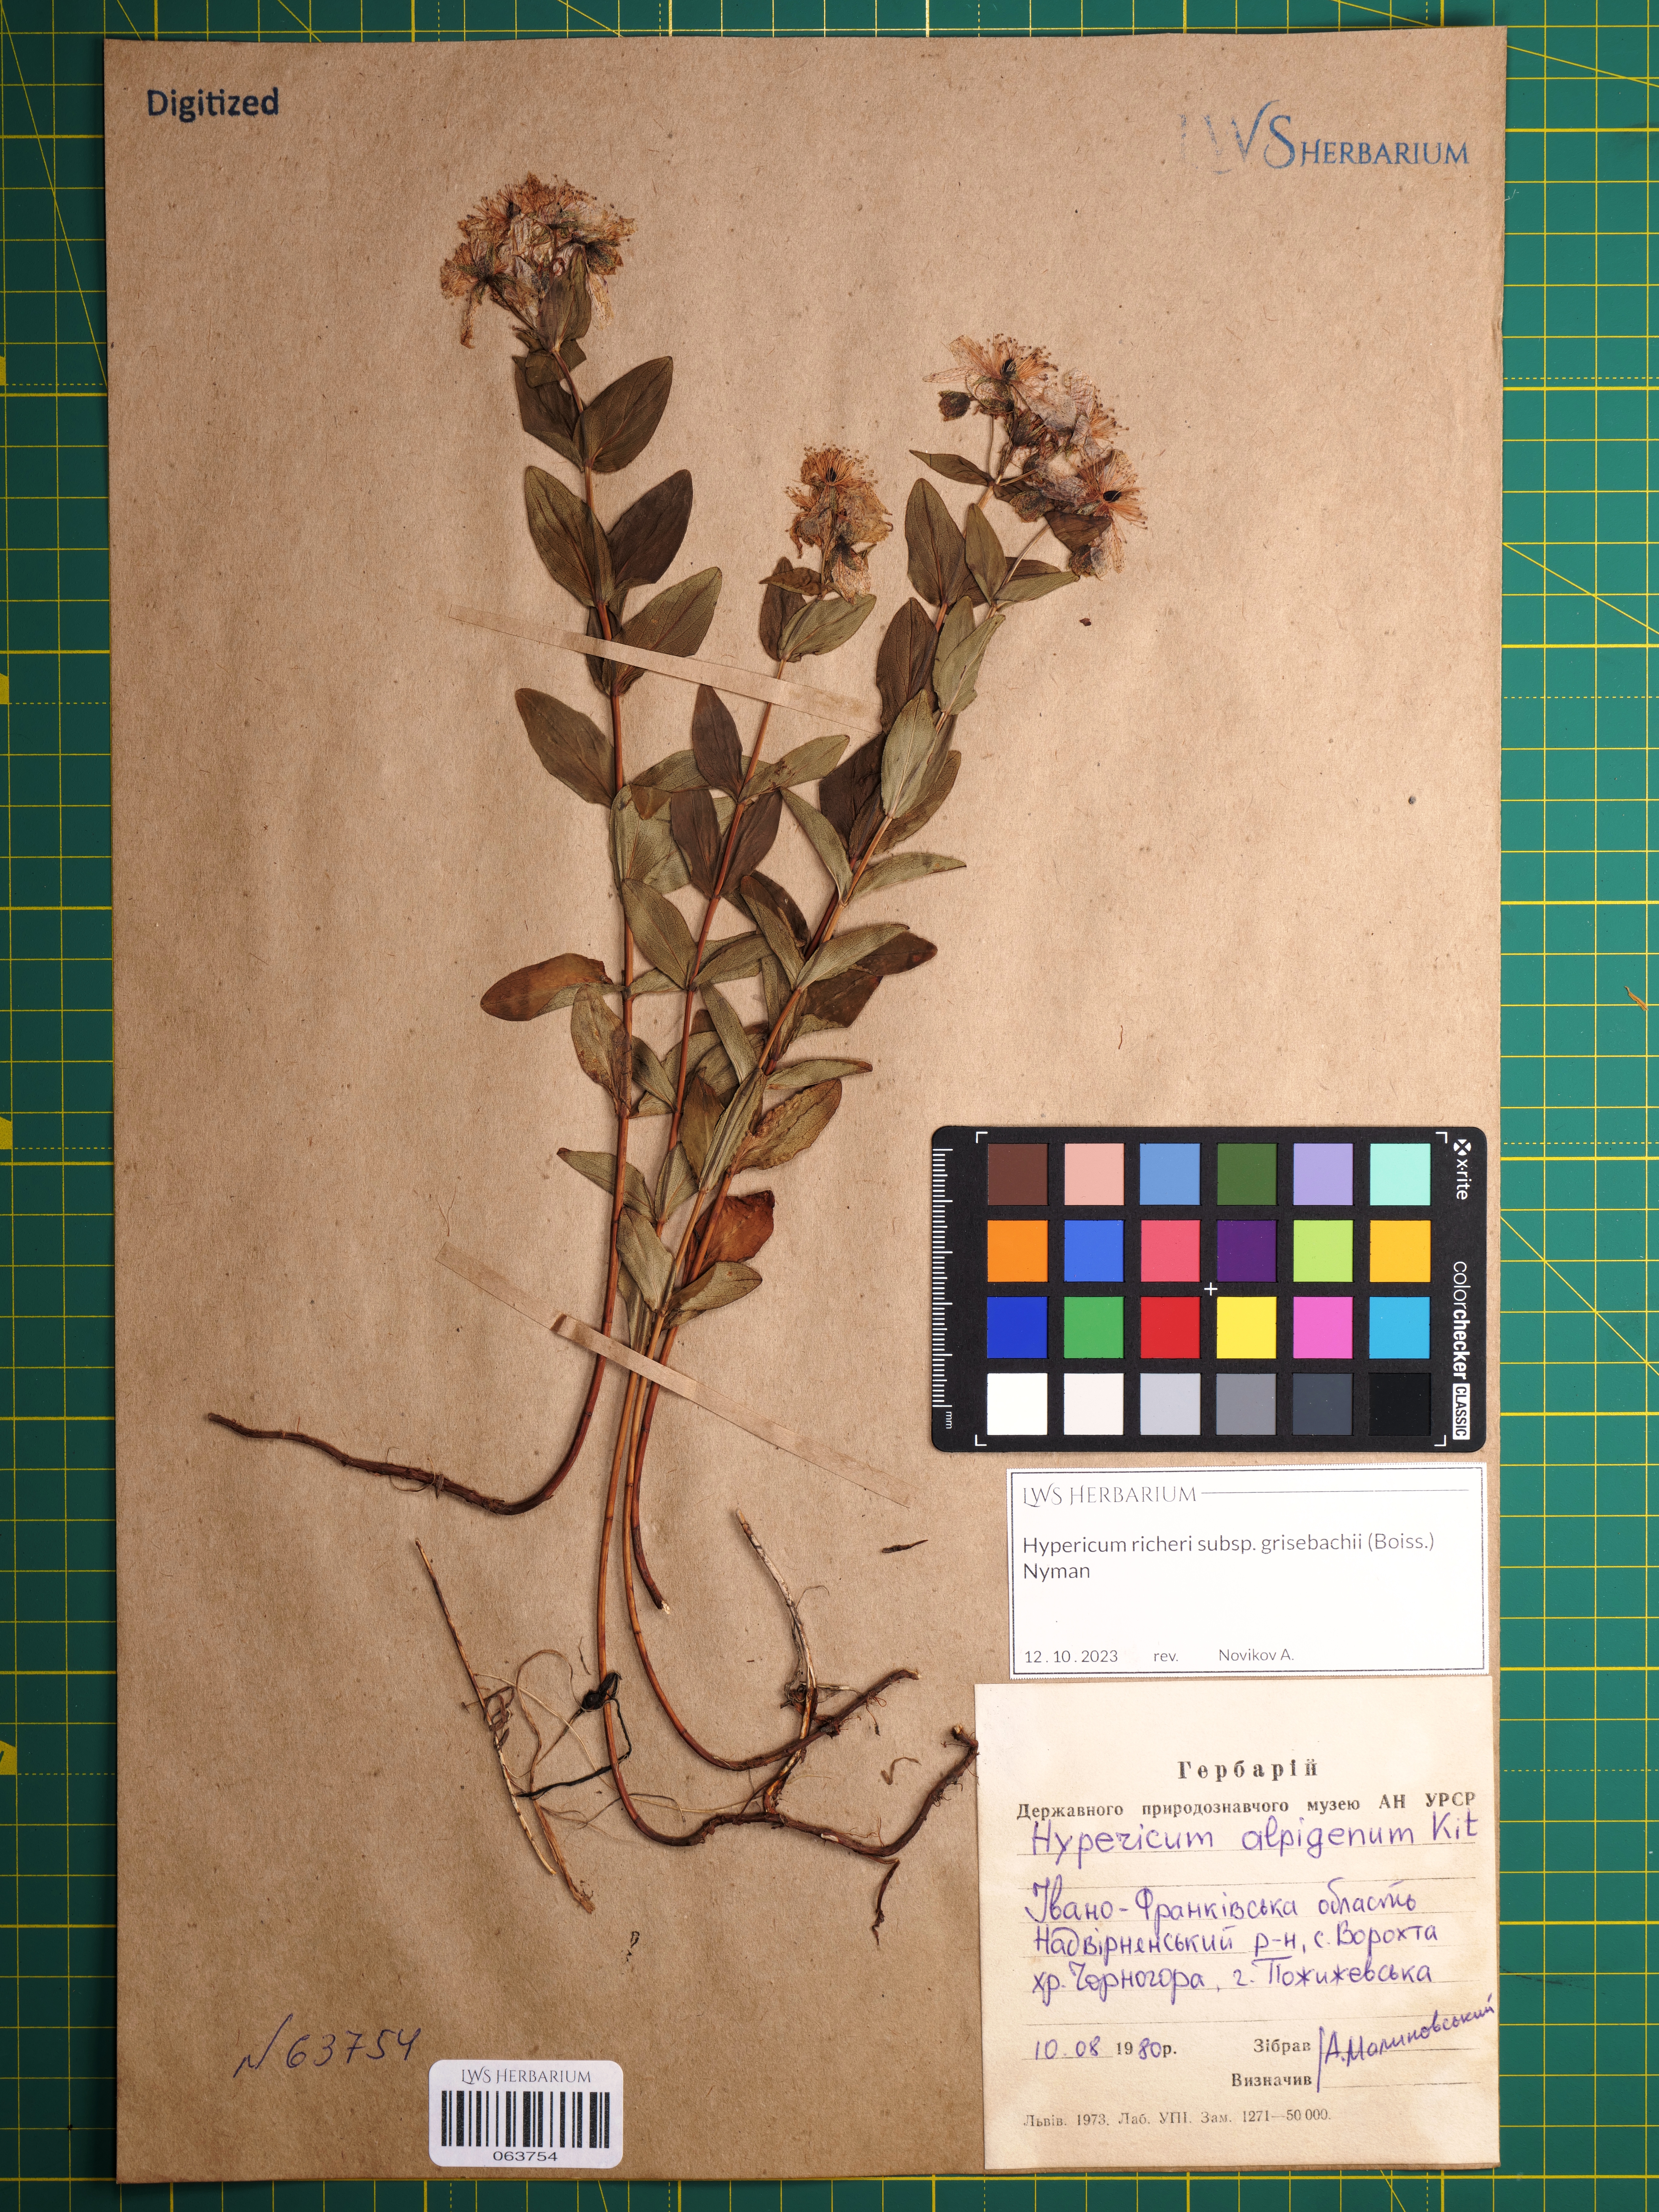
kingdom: Plantae
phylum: Tracheophyta
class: Magnoliopsida
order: Malpighiales
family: Hypericaceae
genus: Hypericum
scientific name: Hypericum richeri
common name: Alpine st john's-wort
